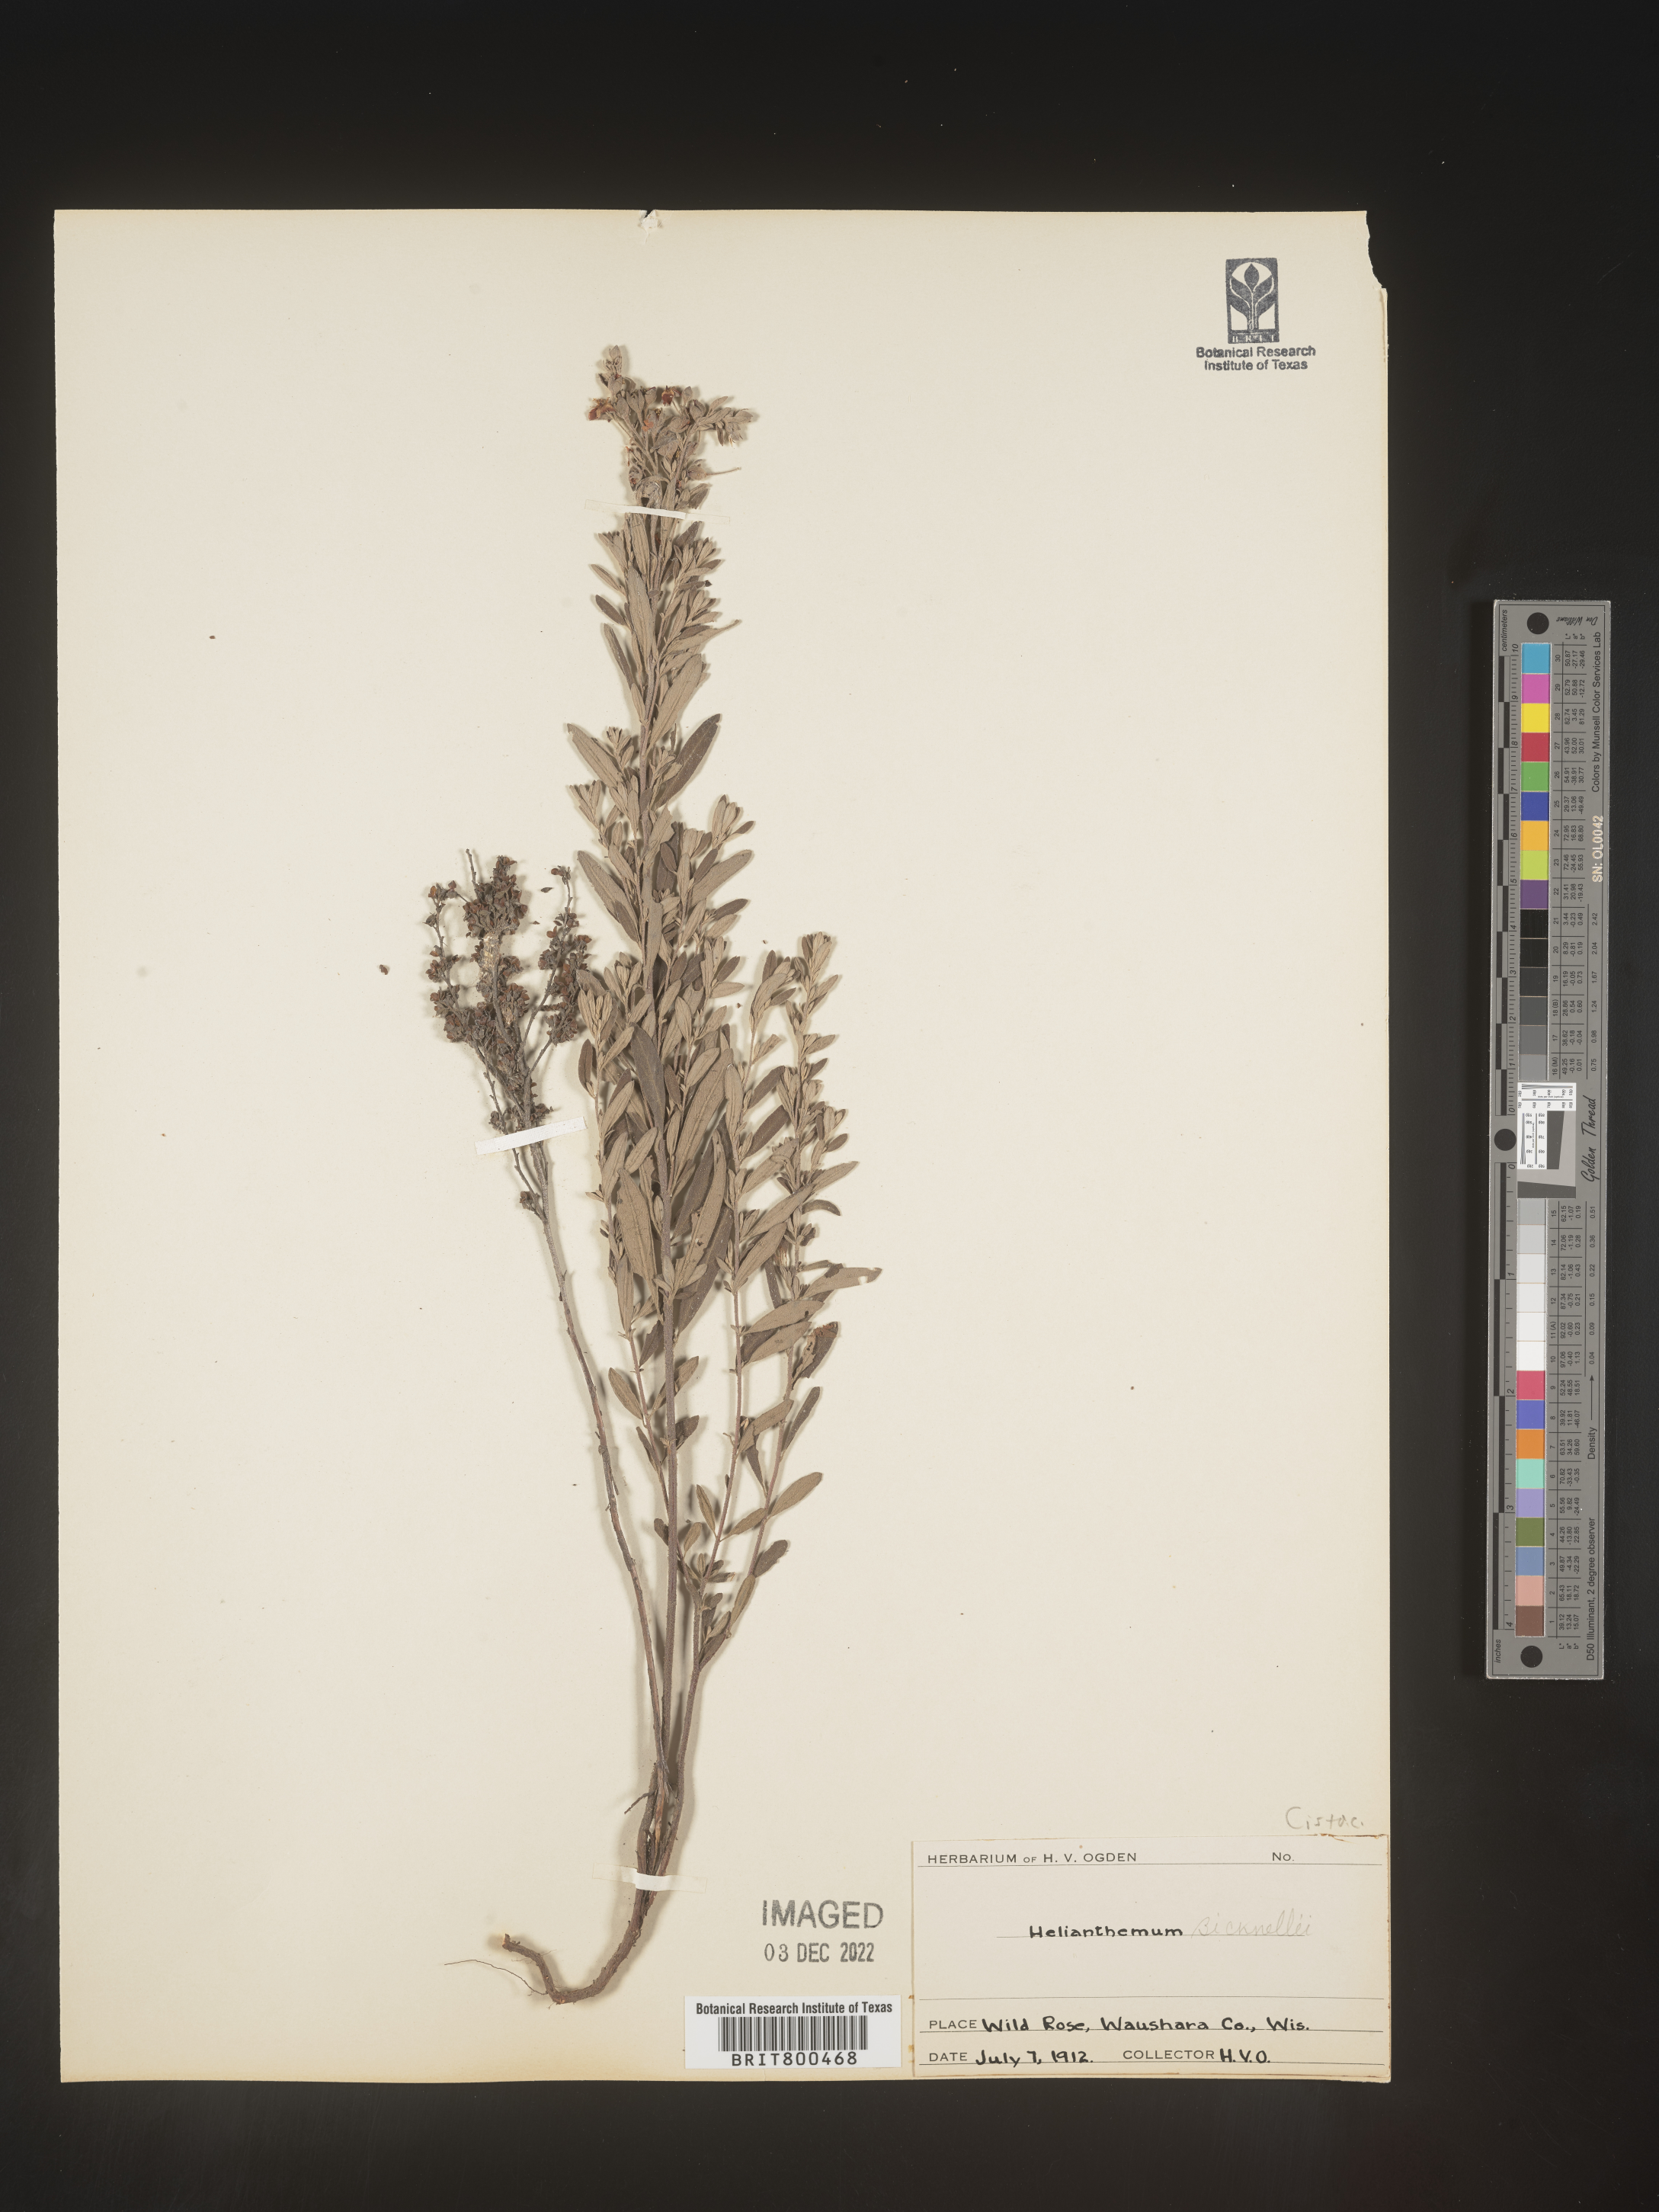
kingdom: Plantae
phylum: Tracheophyta
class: Magnoliopsida
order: Malvales
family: Cistaceae
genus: Helianthemum
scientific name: Helianthemum
